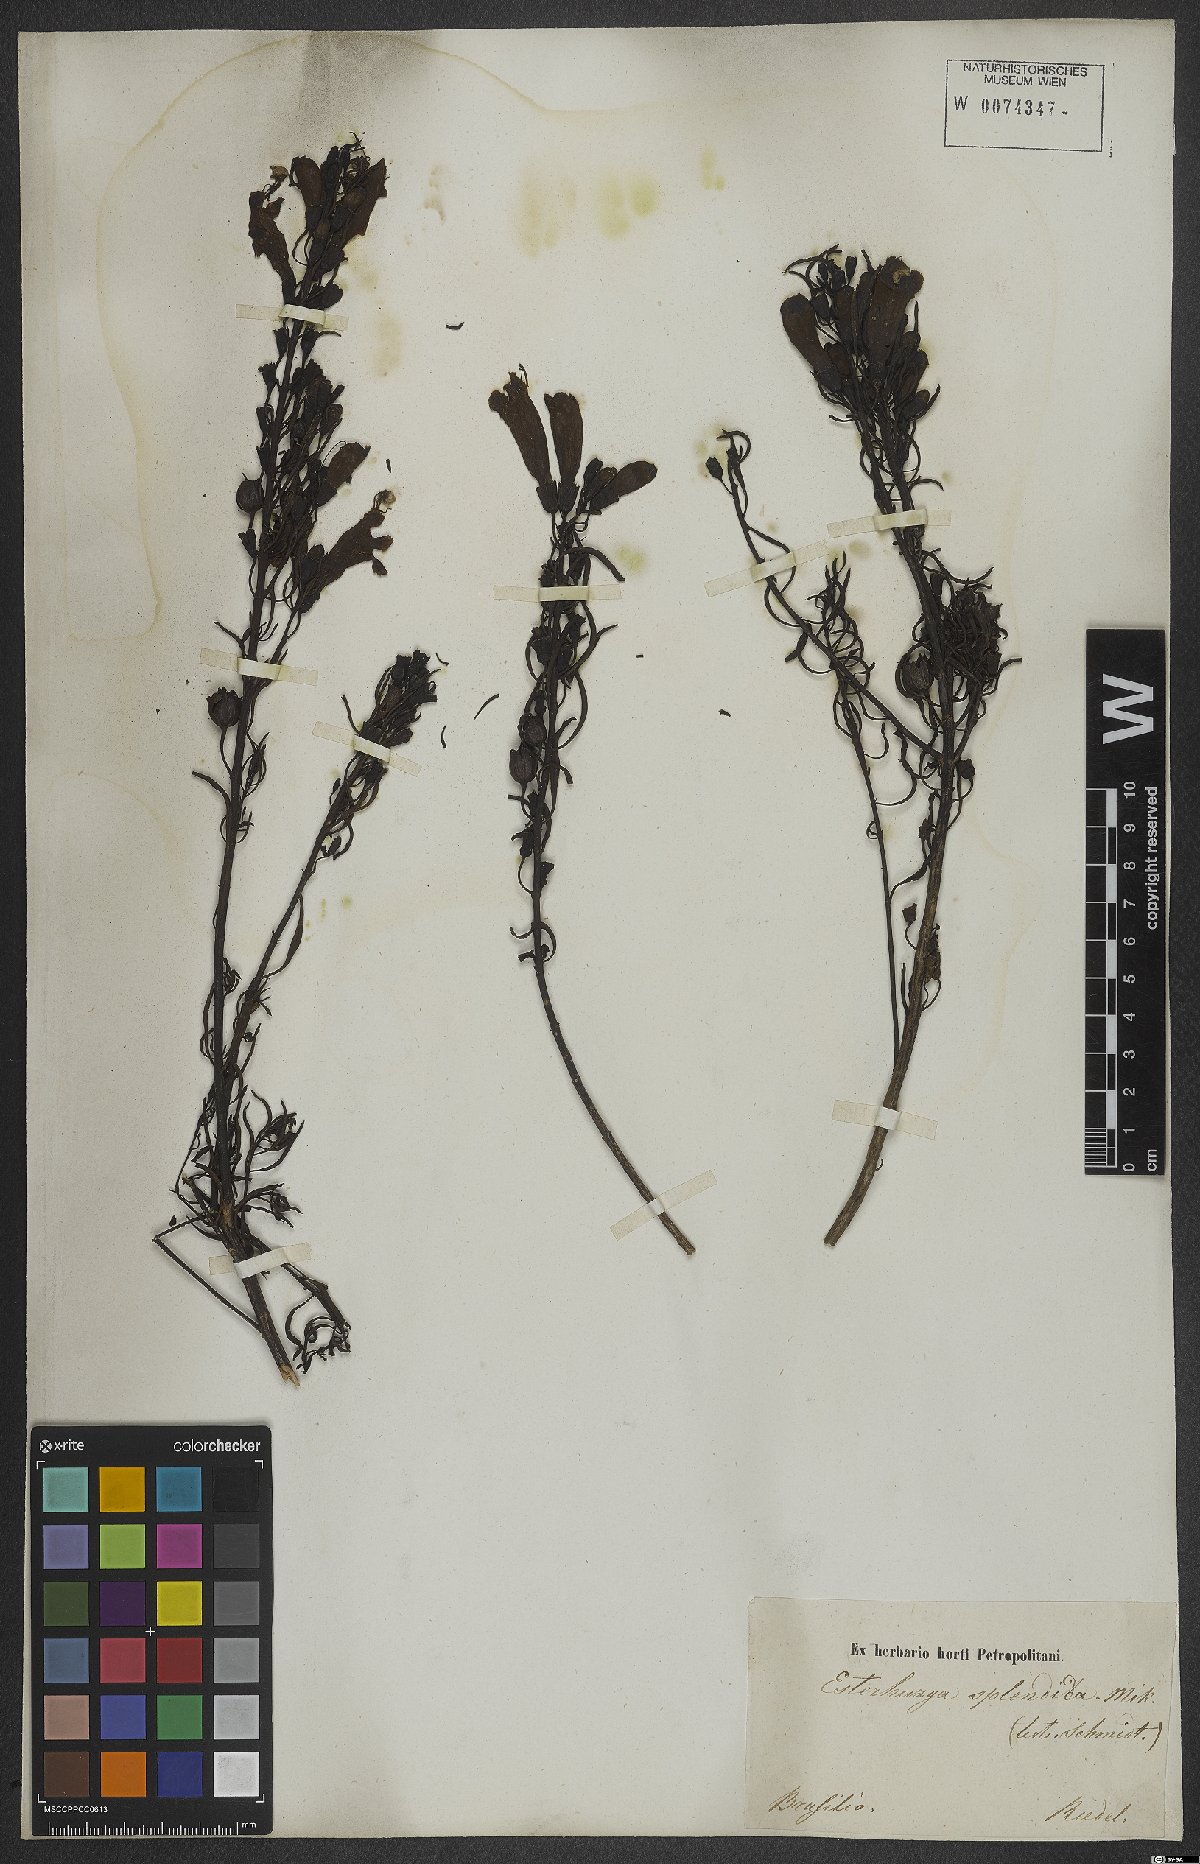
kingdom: Plantae
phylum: Tracheophyta
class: Magnoliopsida
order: Lamiales
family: Orobanchaceae
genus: Esterhazya
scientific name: Esterhazya splendida
